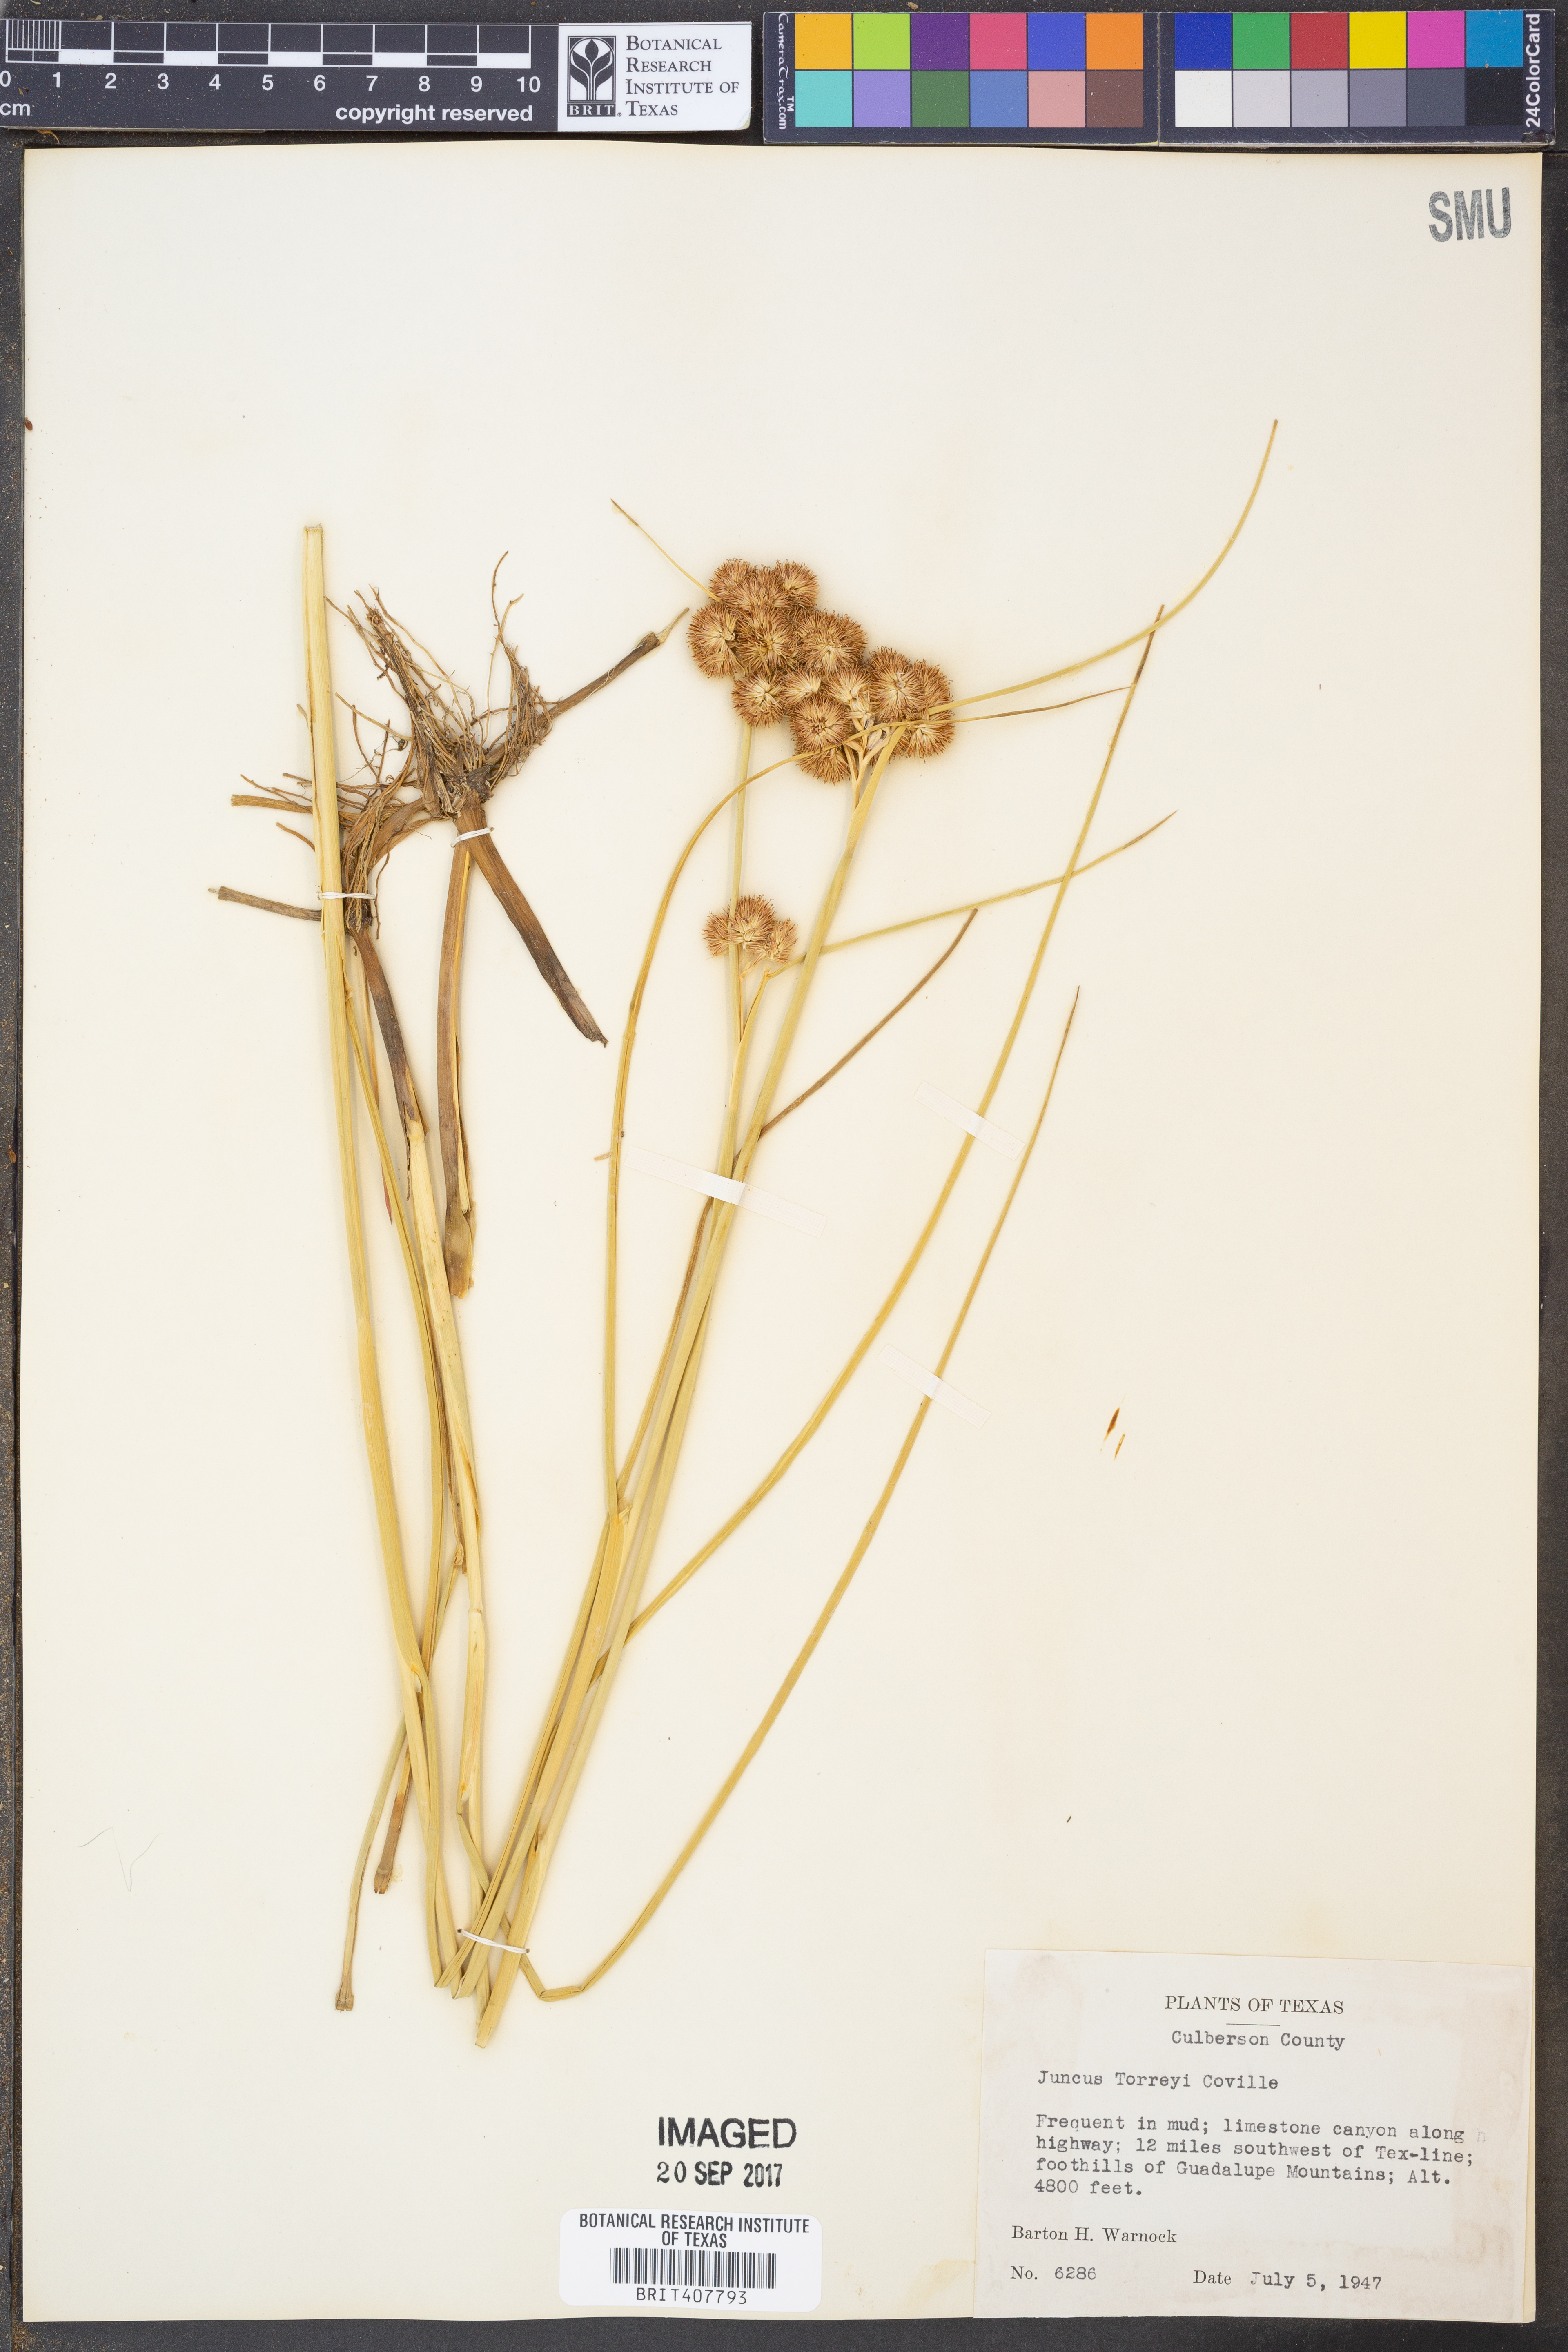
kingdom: Plantae
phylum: Tracheophyta
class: Liliopsida
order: Poales
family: Juncaceae
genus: Juncus
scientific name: Juncus torreyi
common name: Torrey's rush
